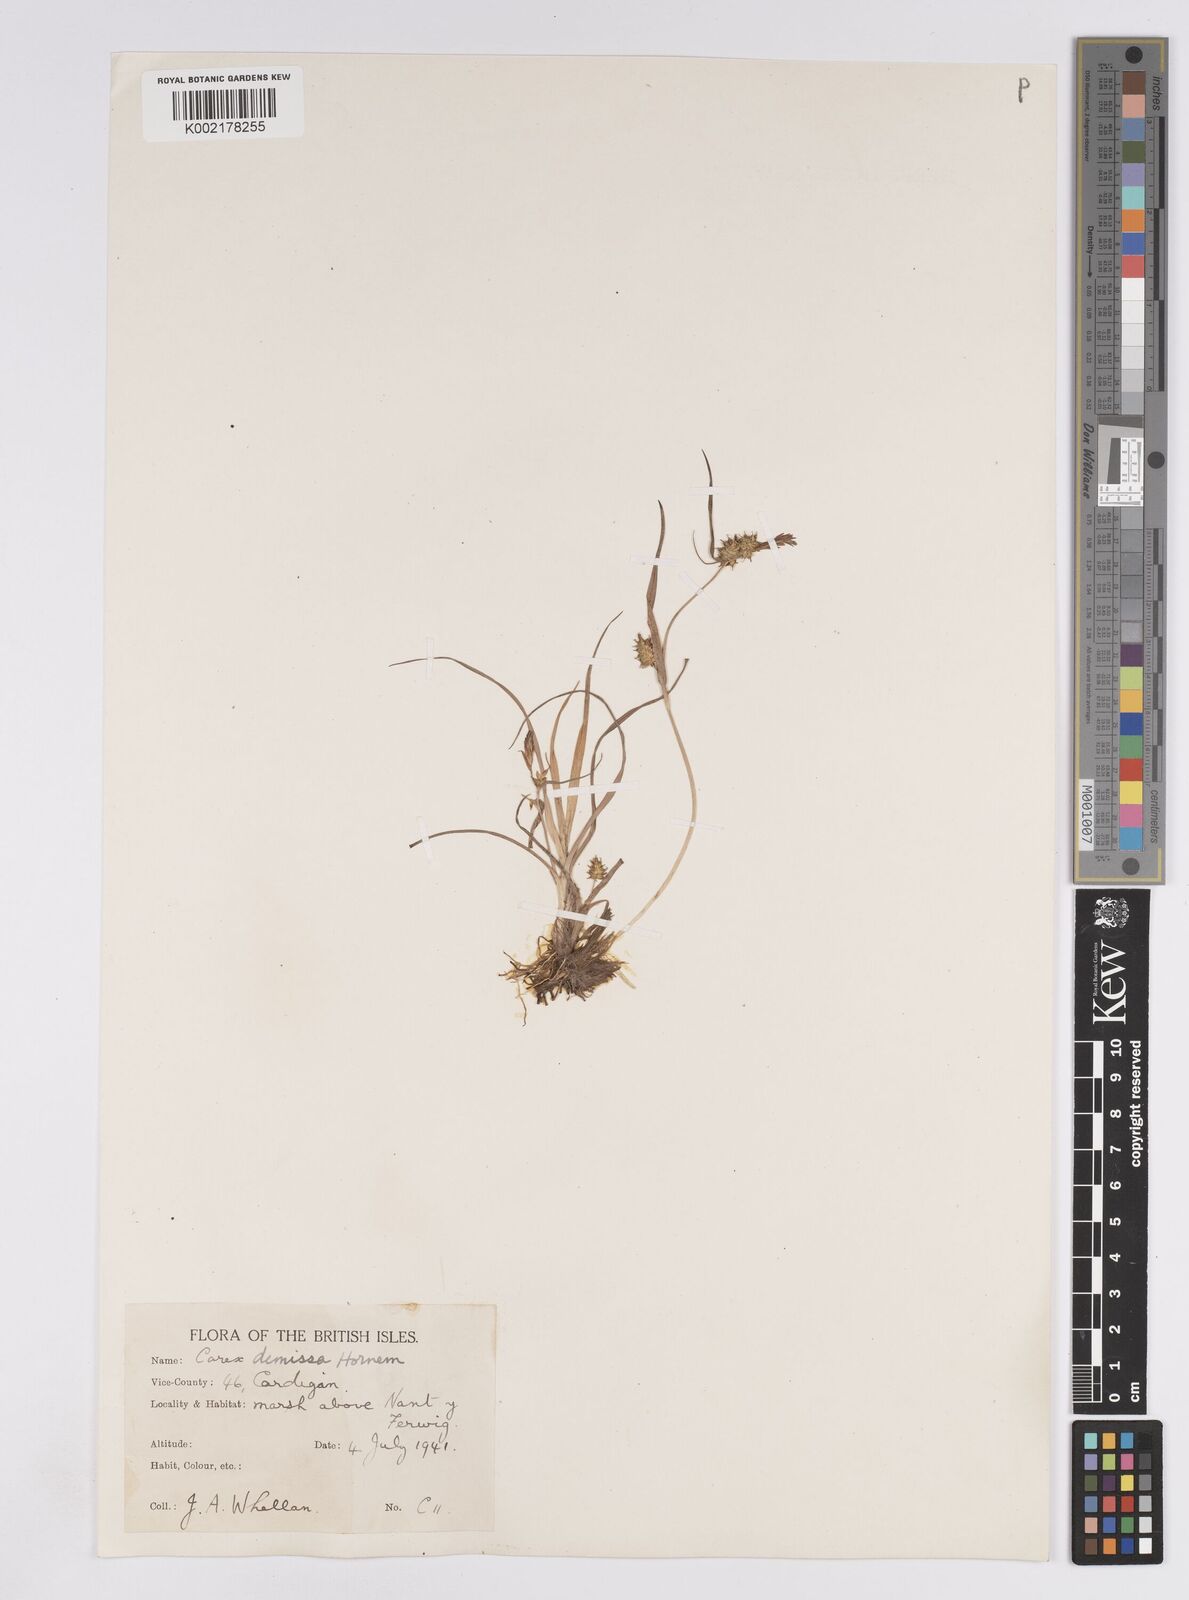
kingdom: Plantae
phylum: Tracheophyta
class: Liliopsida
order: Poales
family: Cyperaceae
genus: Carex
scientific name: Carex demissa
